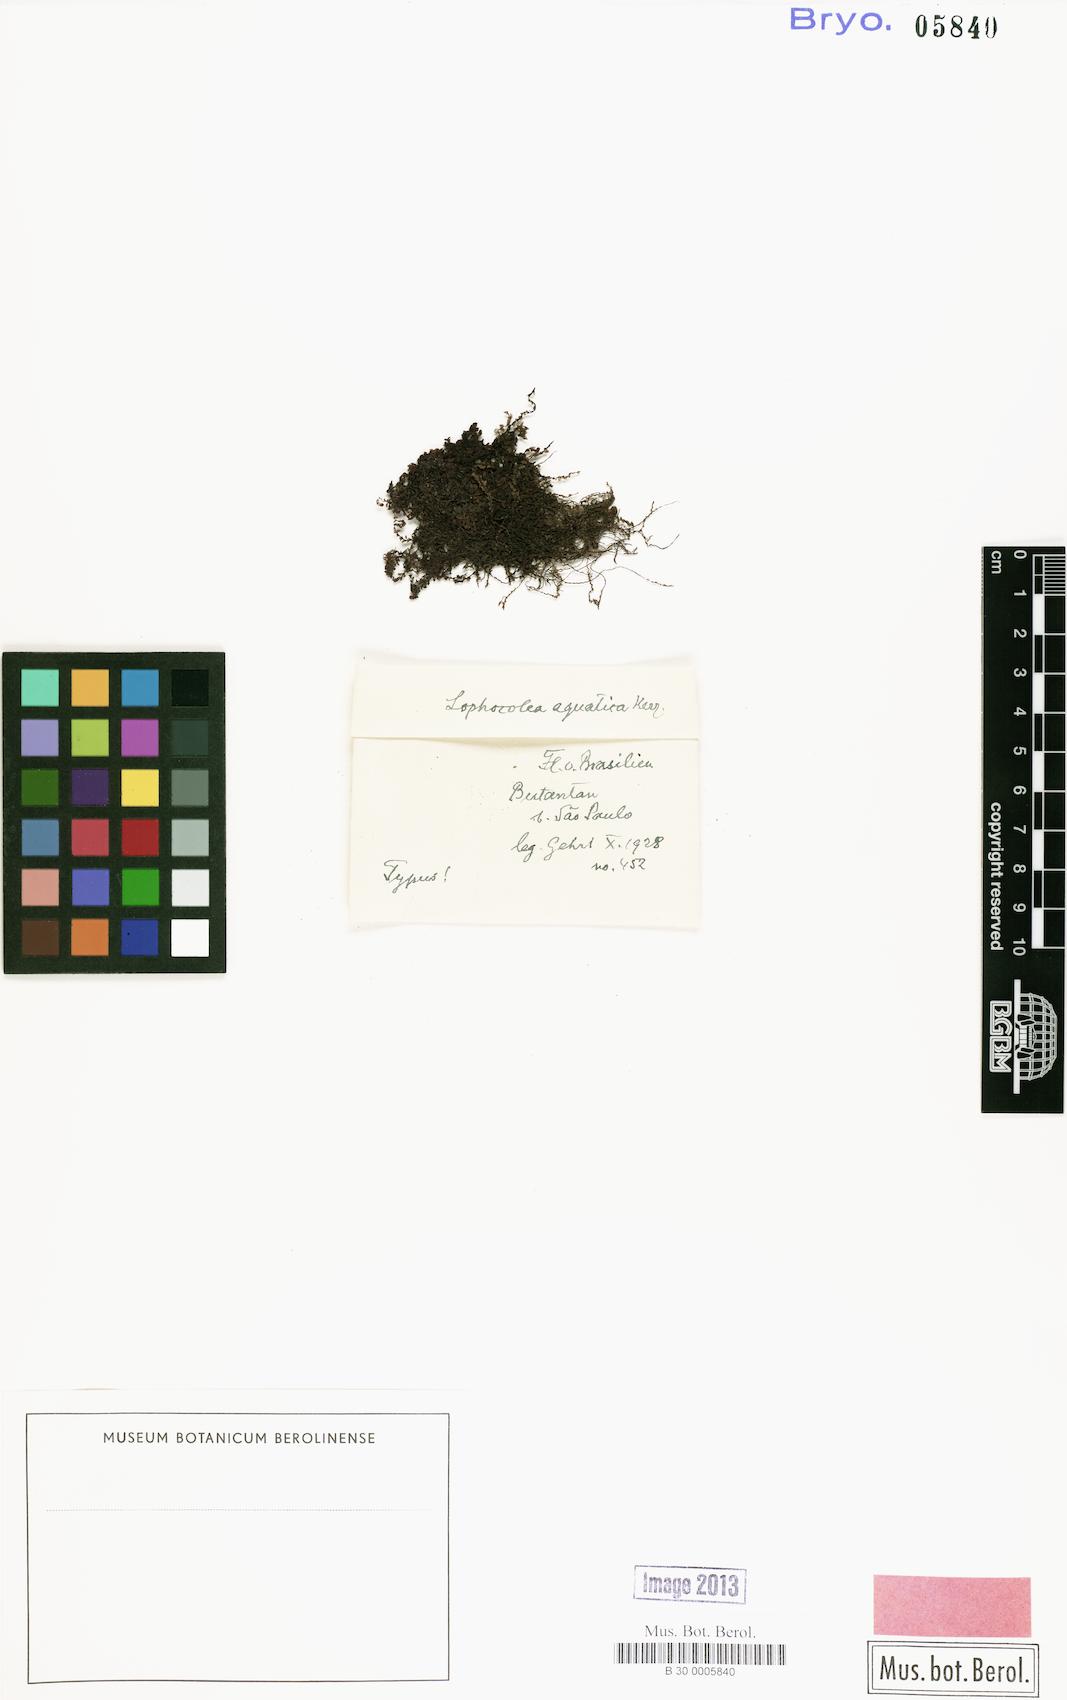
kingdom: Plantae
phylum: Marchantiophyta
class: Jungermanniopsida
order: Jungermanniales
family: Lophocoleaceae
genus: Lophocolea
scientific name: Lophocolea platensis
